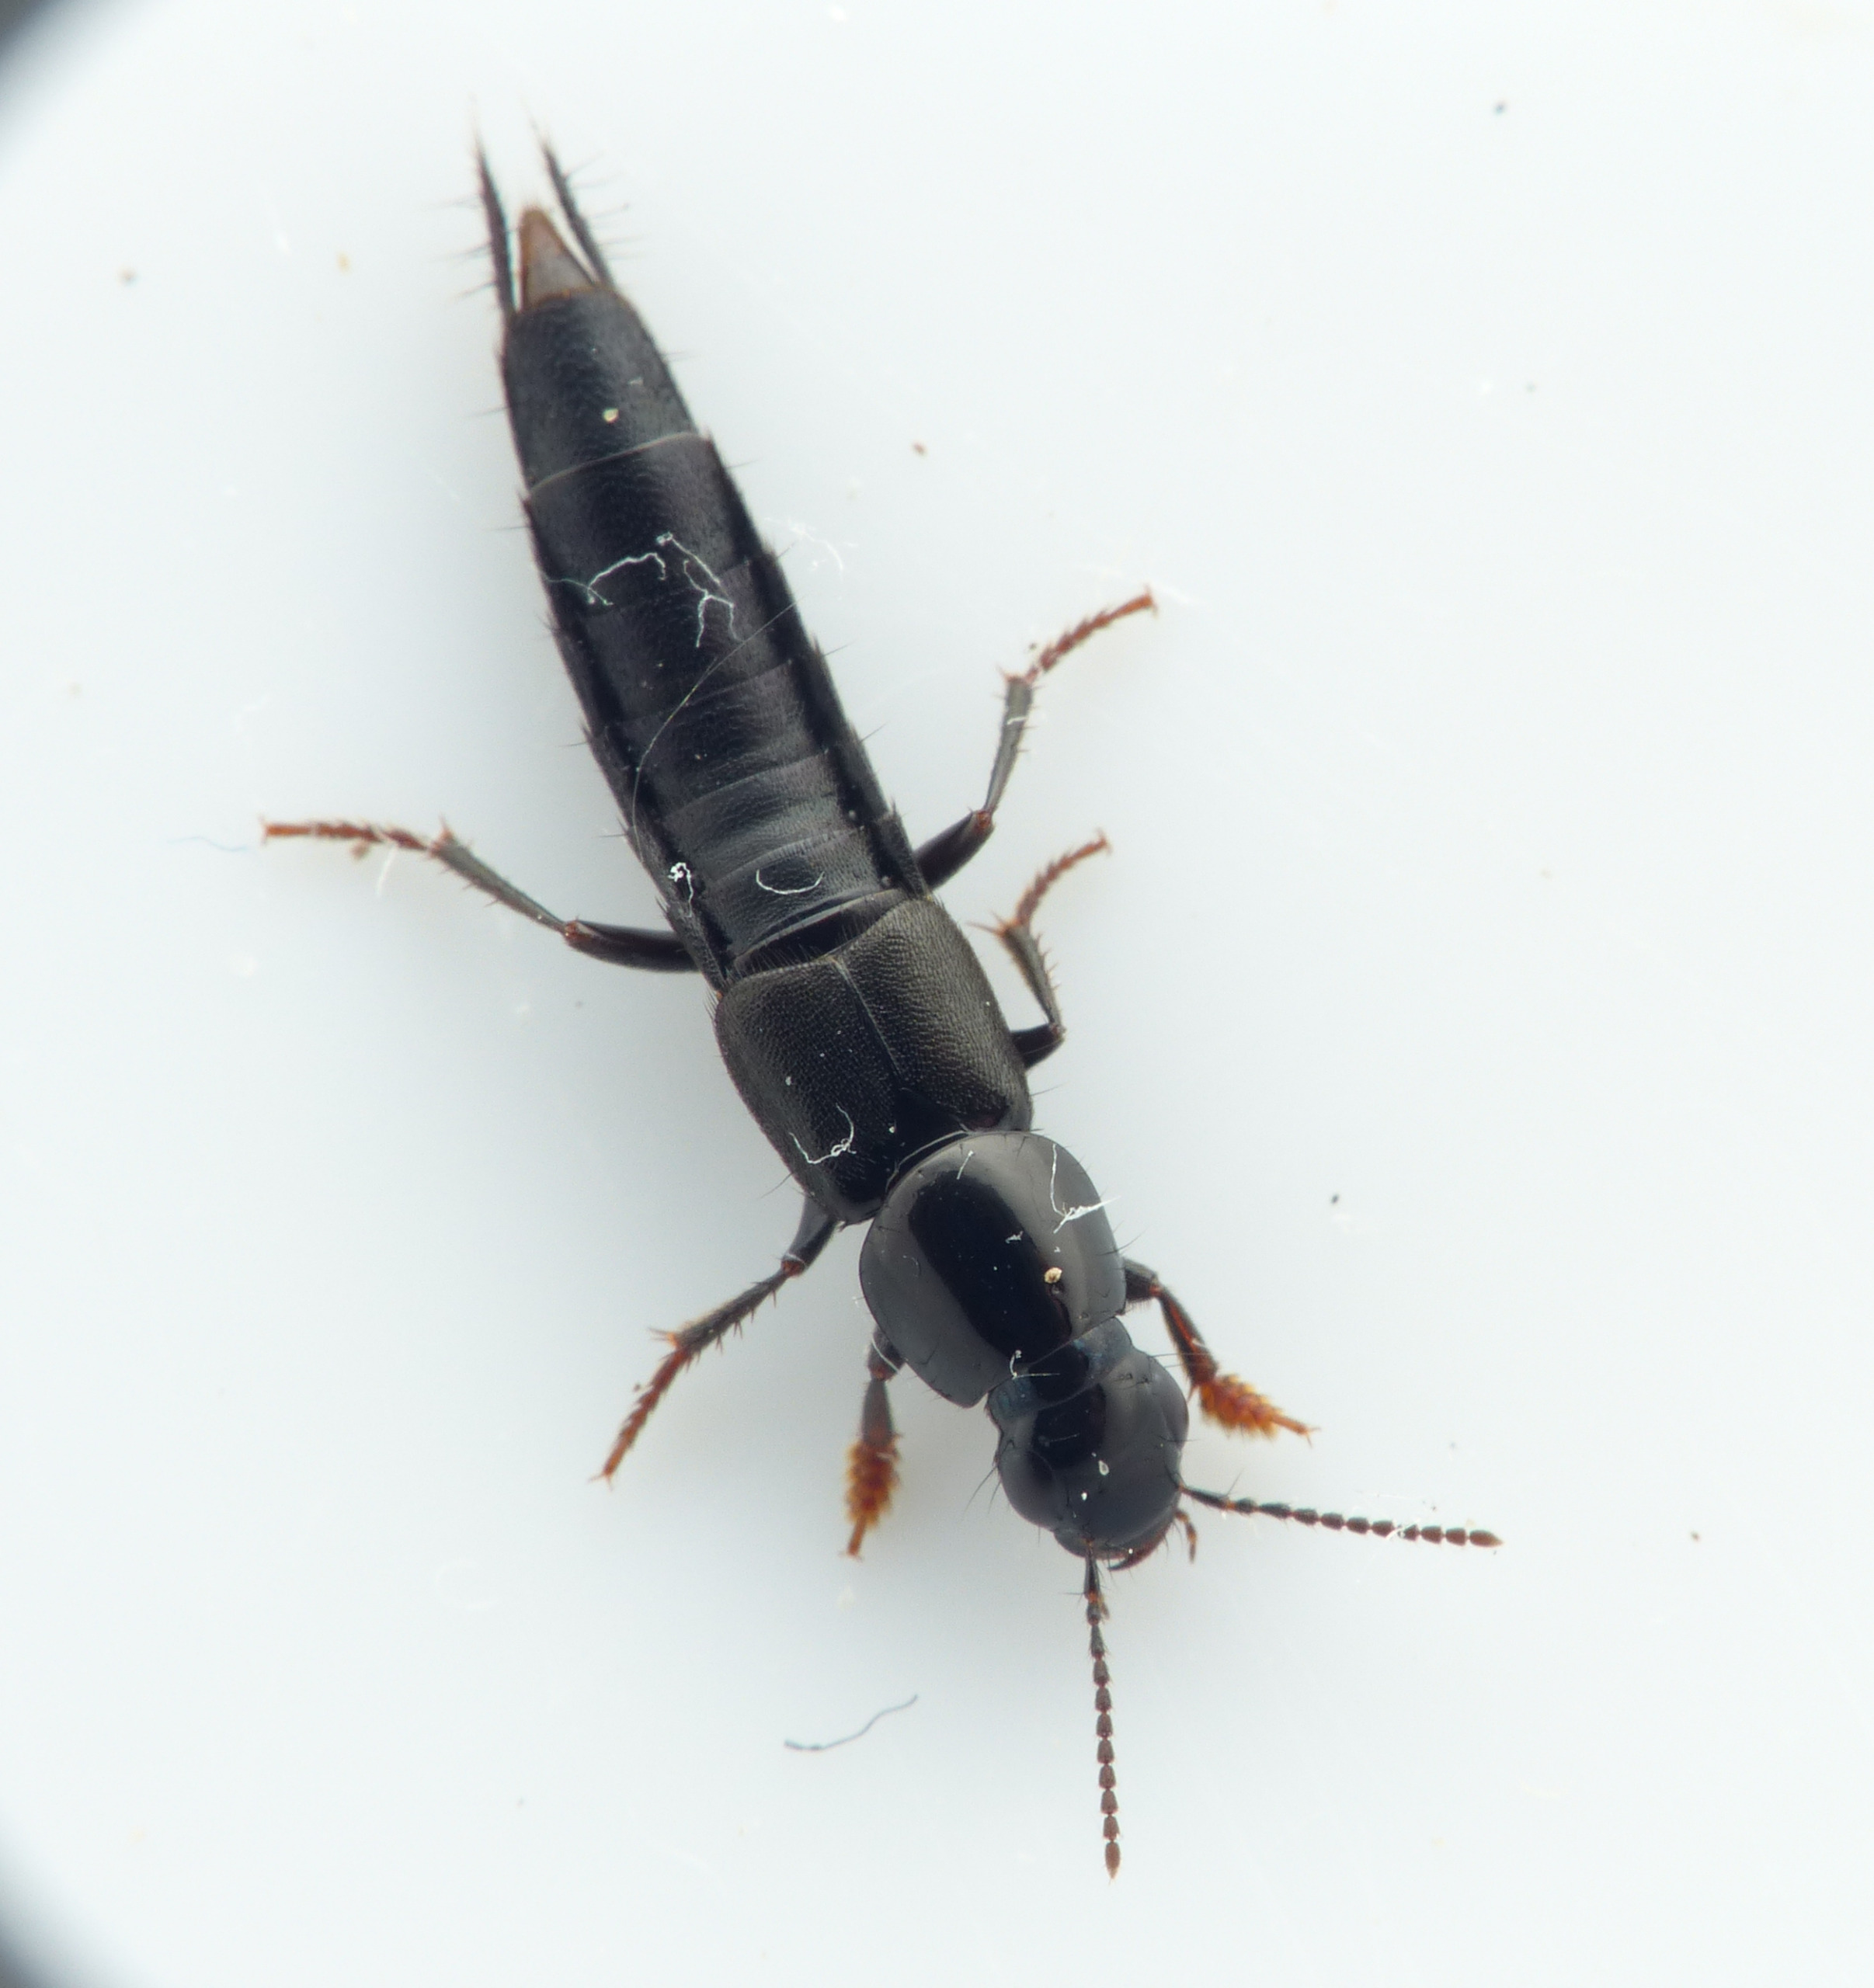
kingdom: Animalia
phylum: Arthropoda
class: Insecta
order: Coleoptera
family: Staphylinidae
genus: Quedius
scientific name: Quedius fuliginosus
